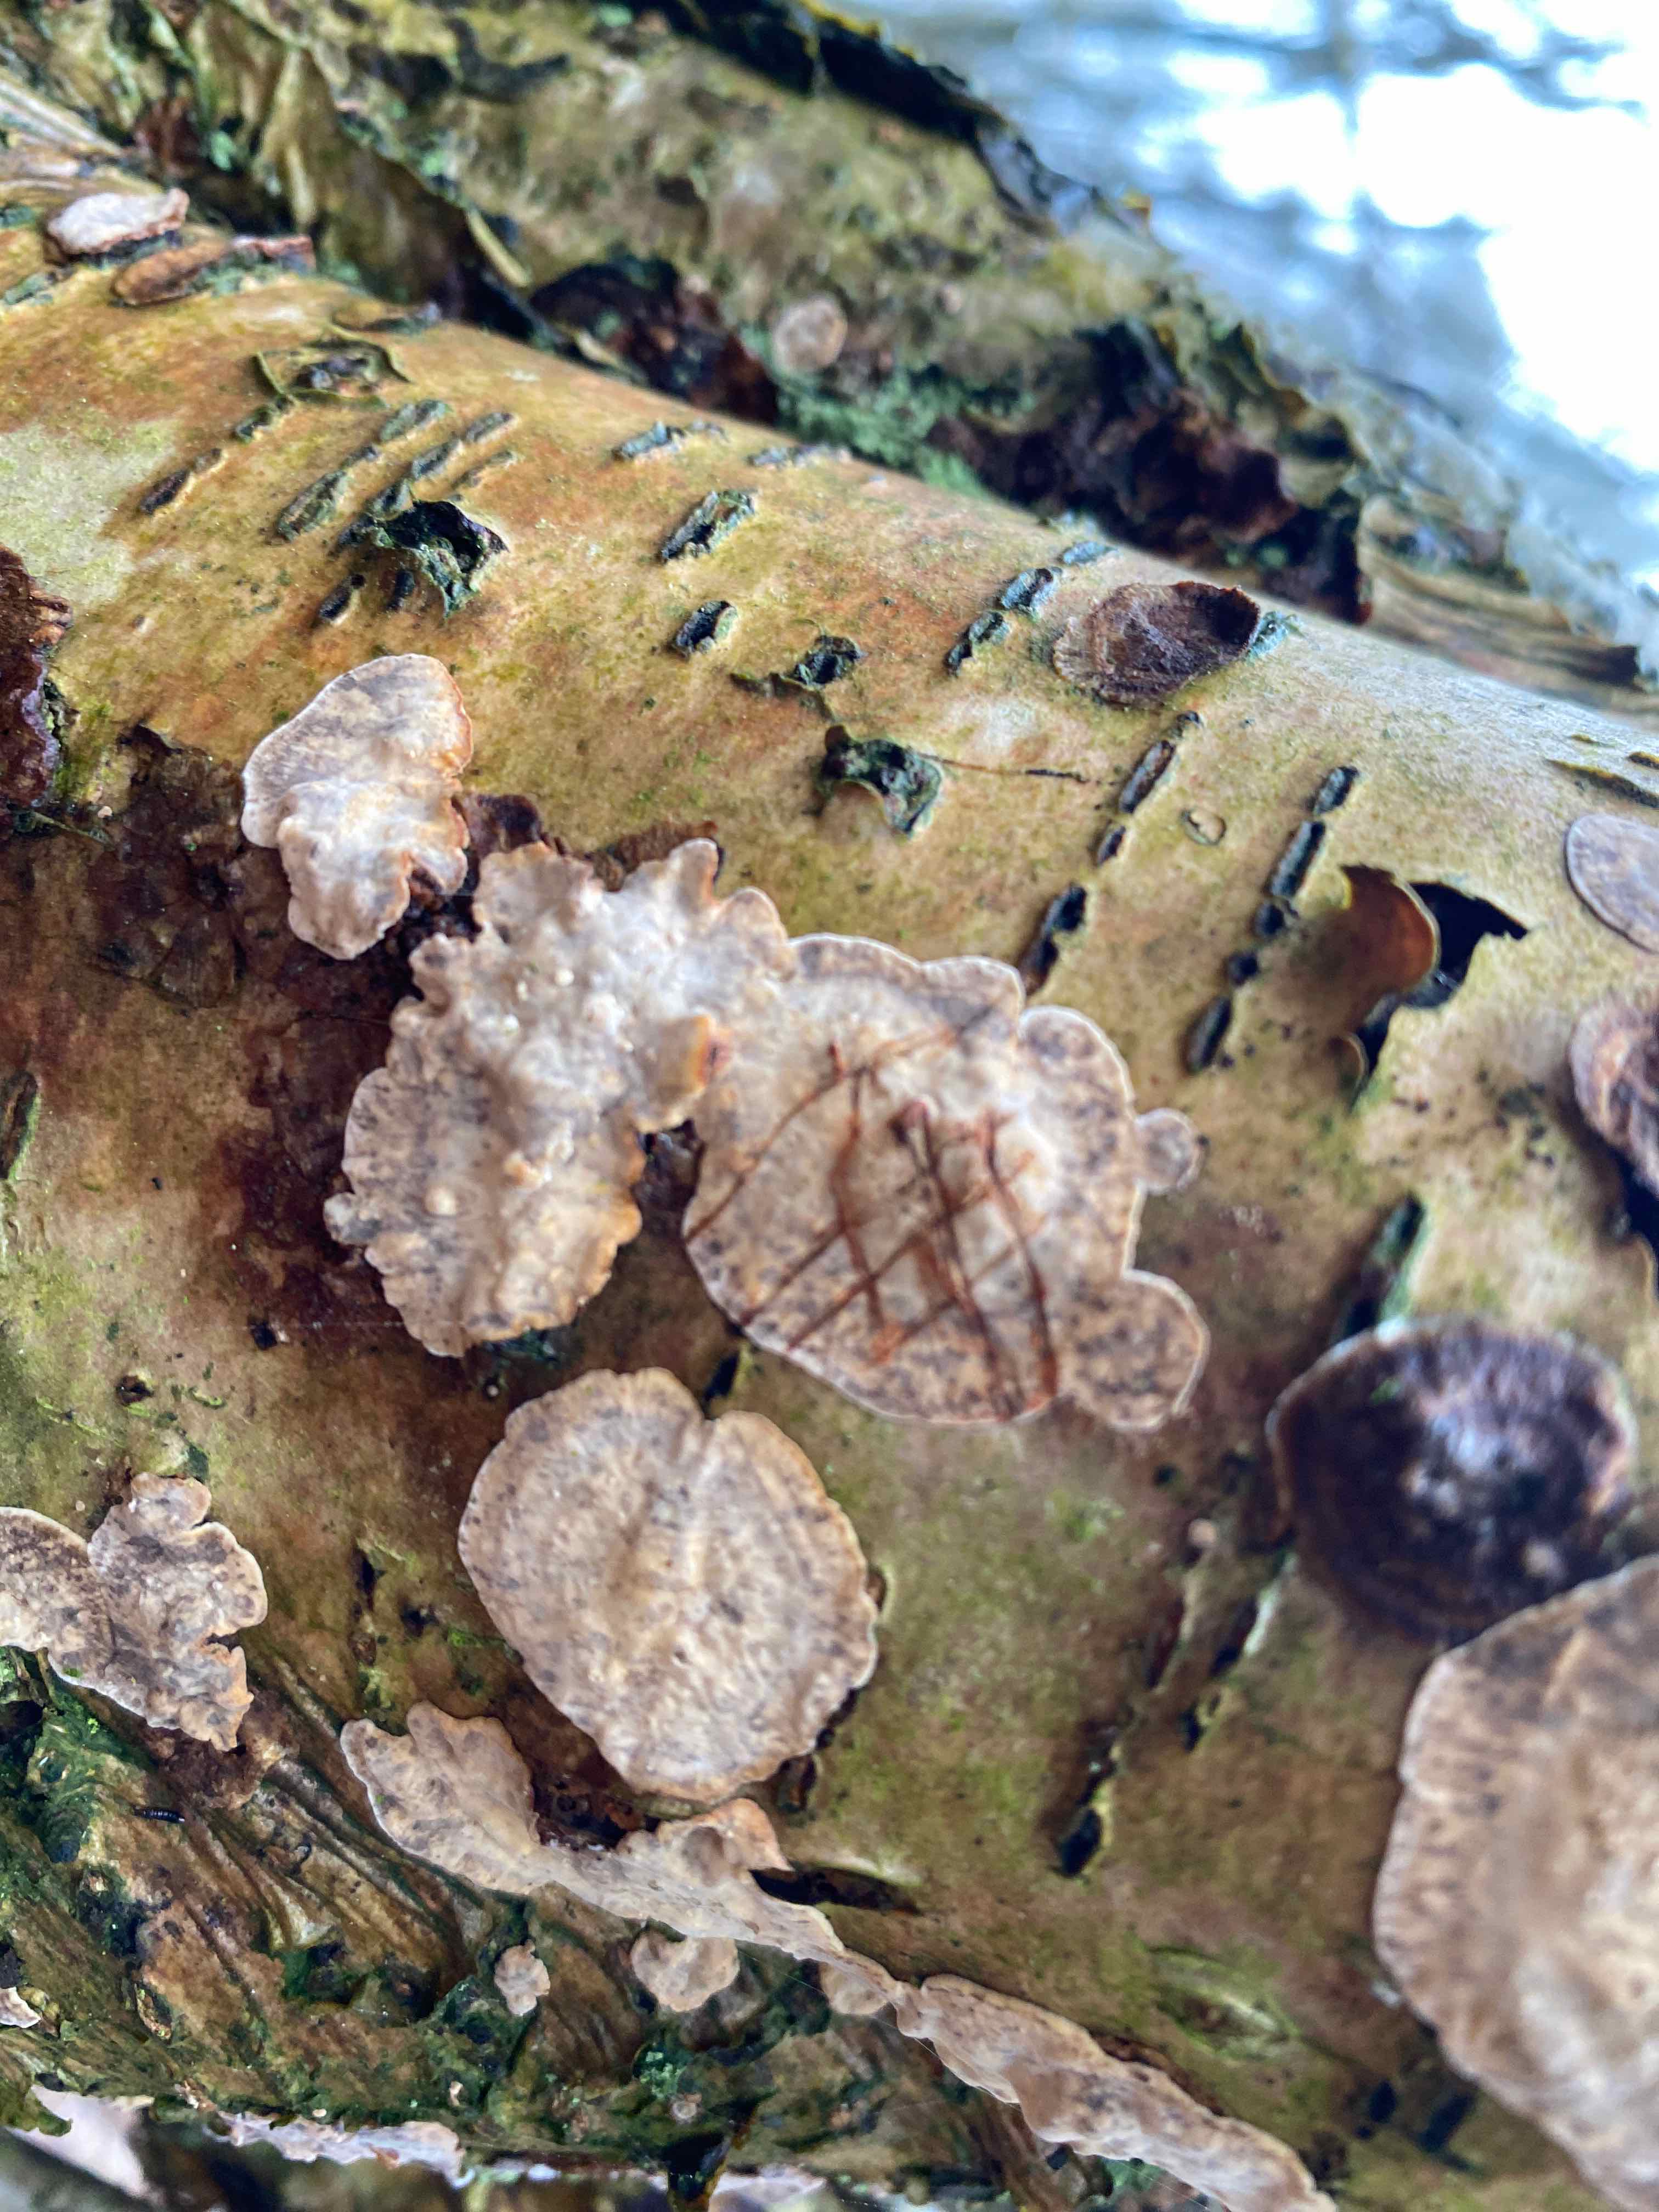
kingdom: Fungi
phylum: Basidiomycota
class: Agaricomycetes
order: Russulales
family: Stereaceae
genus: Stereum
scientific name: Stereum rugosum
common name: rynket lædersvamp
